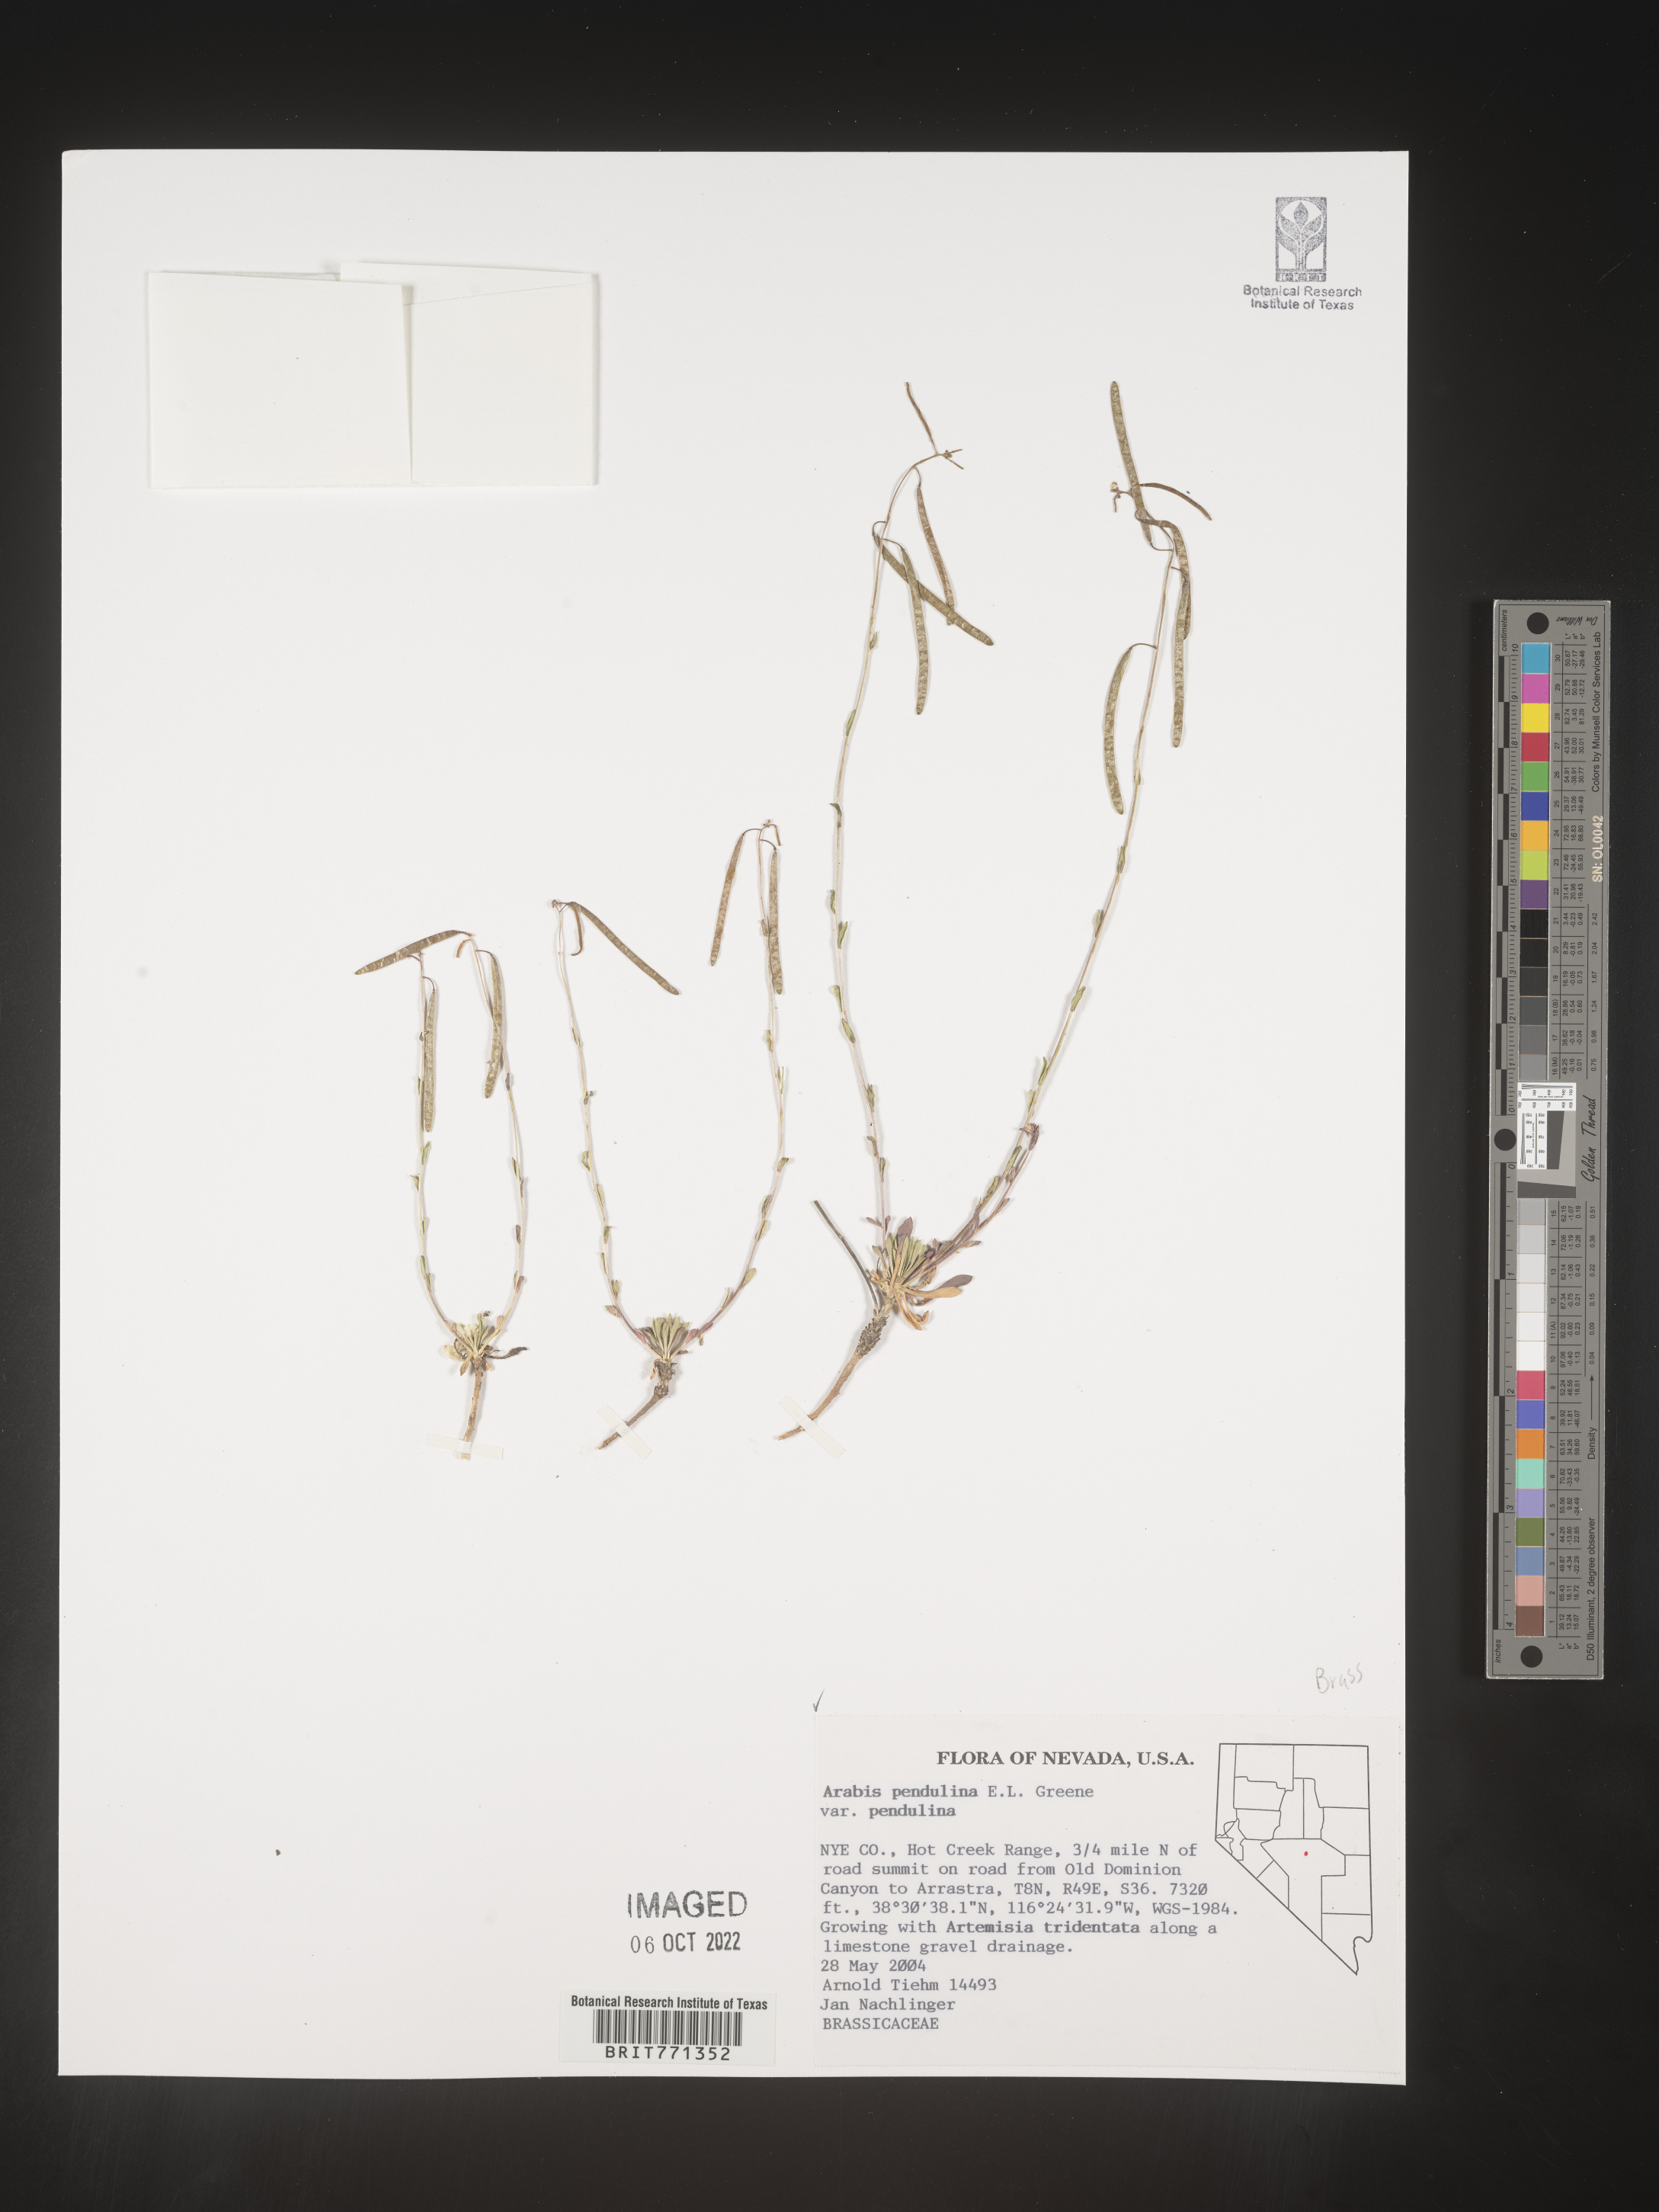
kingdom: Plantae
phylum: Tracheophyta
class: Magnoliopsida
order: Brassicales
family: Brassicaceae
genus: Arabis
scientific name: Arabis
